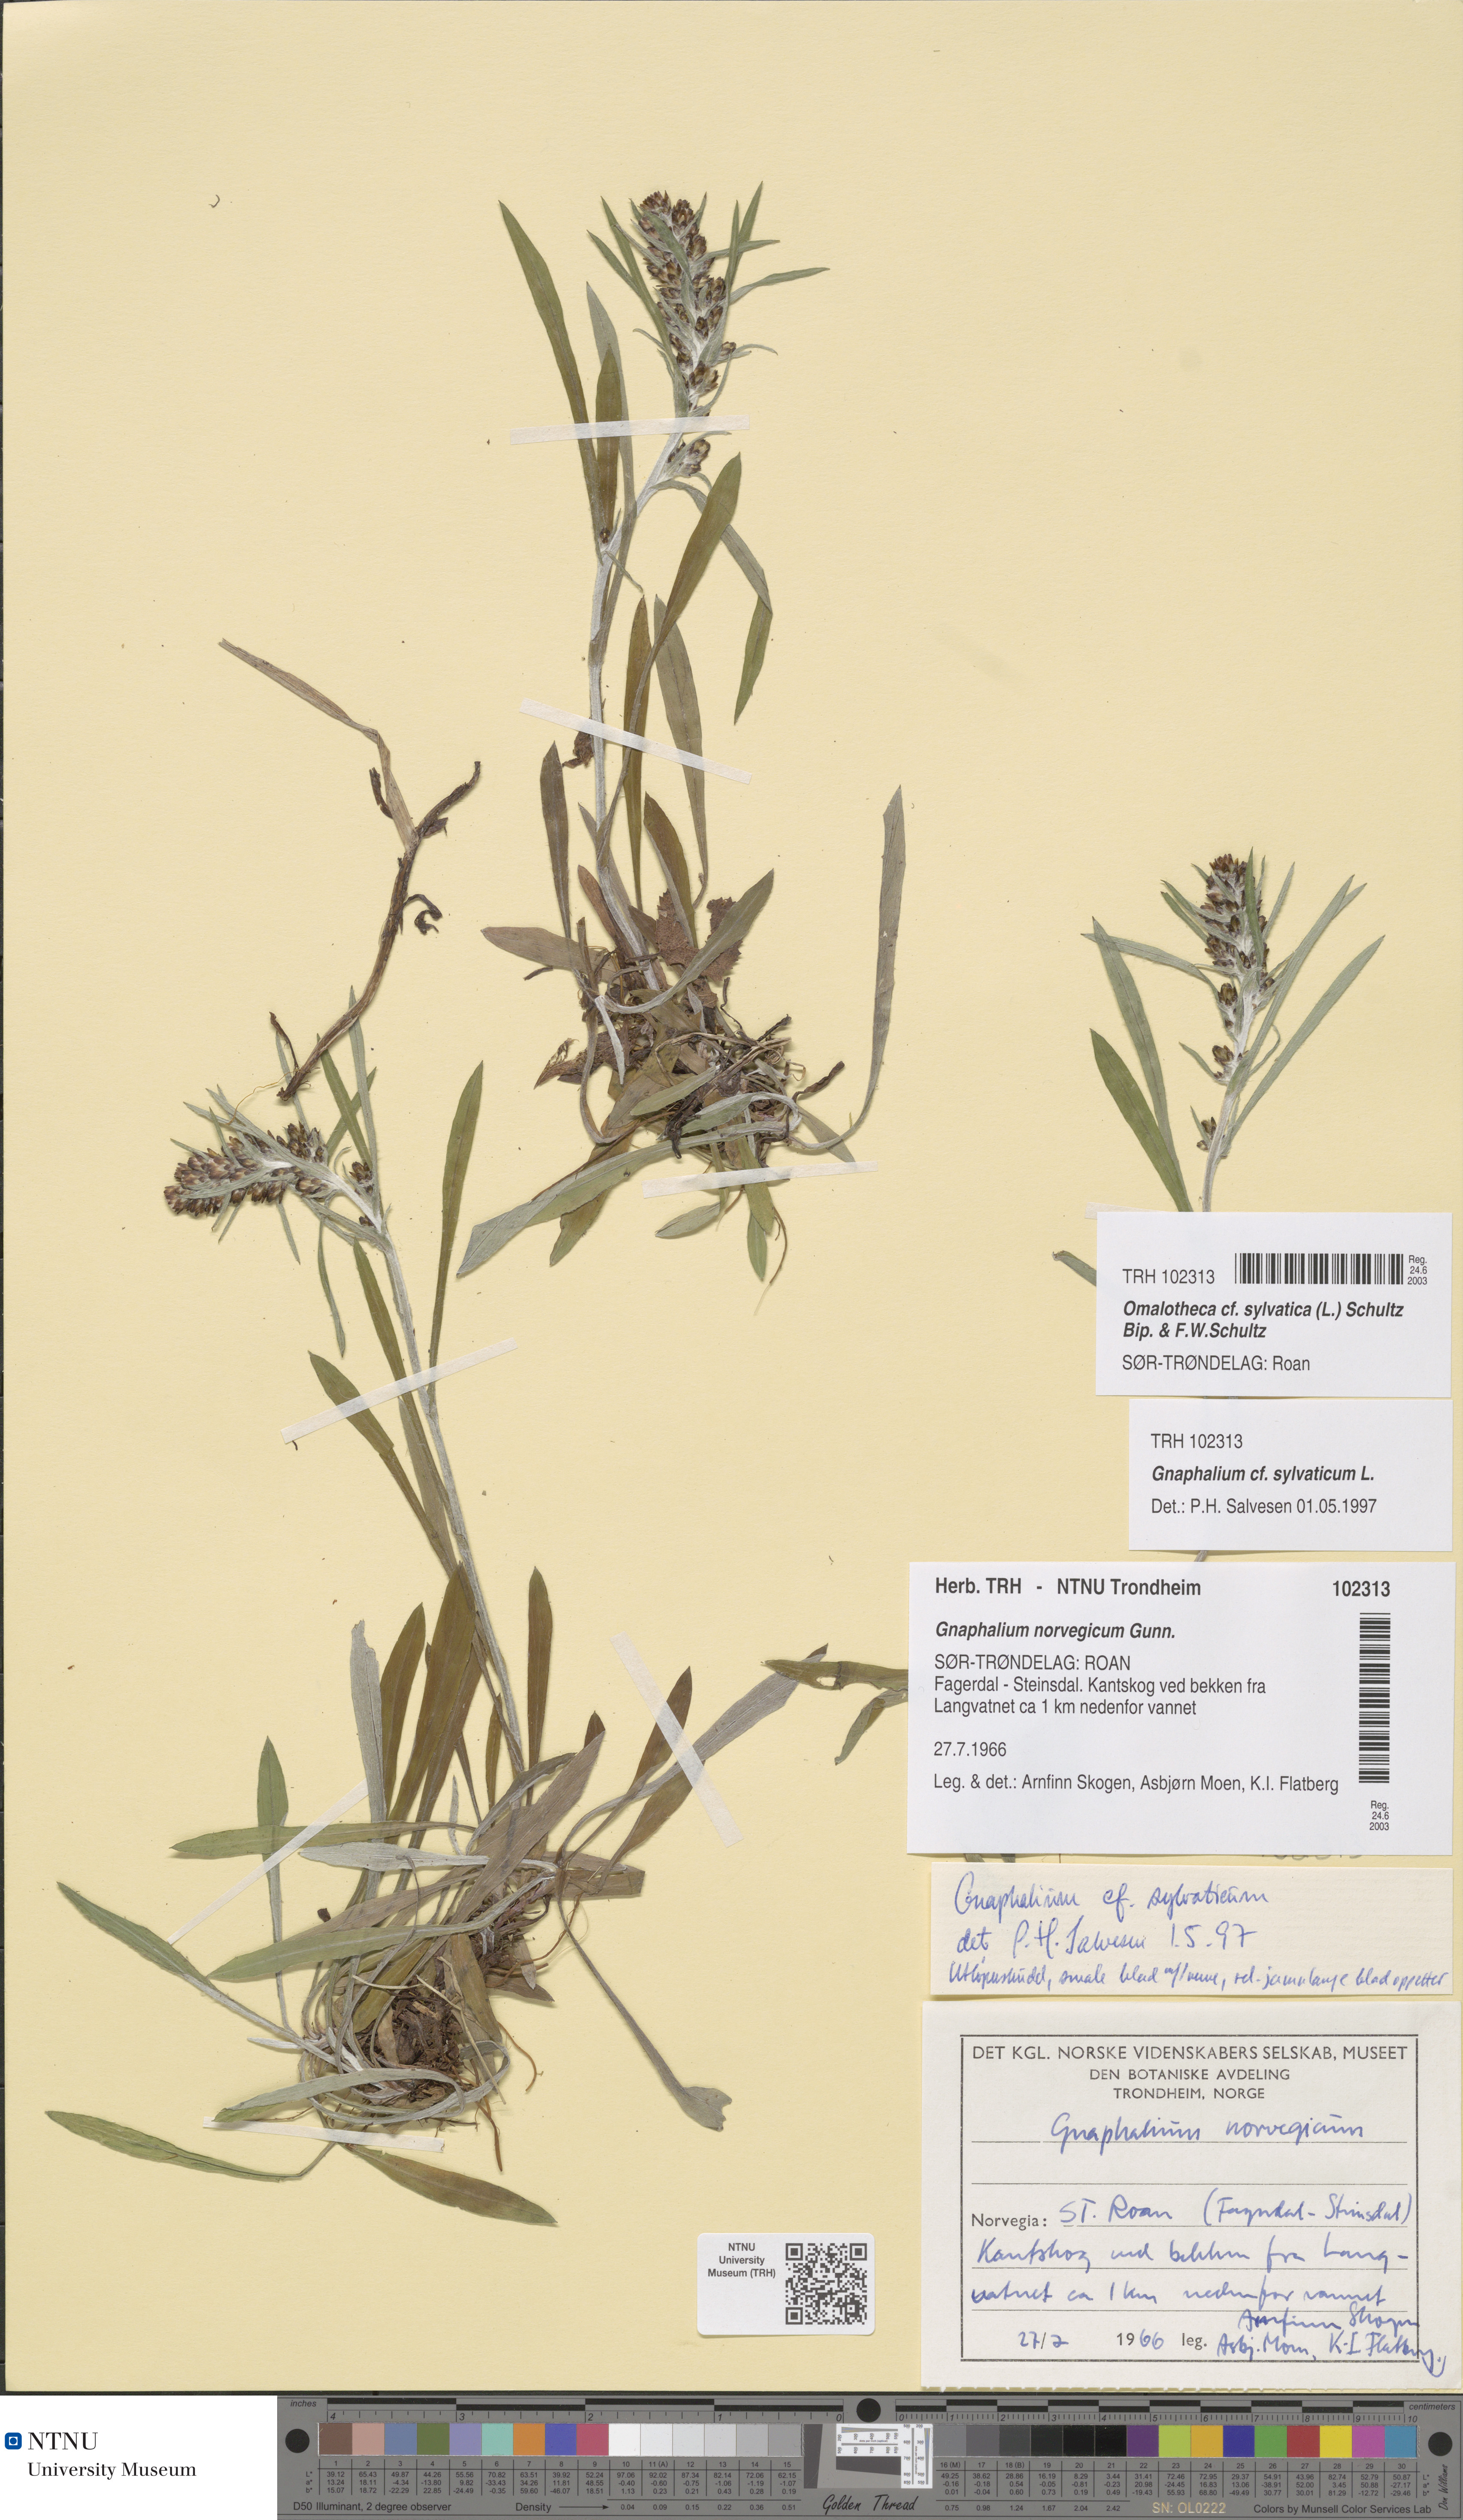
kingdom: Plantae
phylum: Tracheophyta
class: Magnoliopsida
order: Asterales
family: Asteraceae
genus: Omalotheca
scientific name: Omalotheca sylvatica
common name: Heath cudweed
